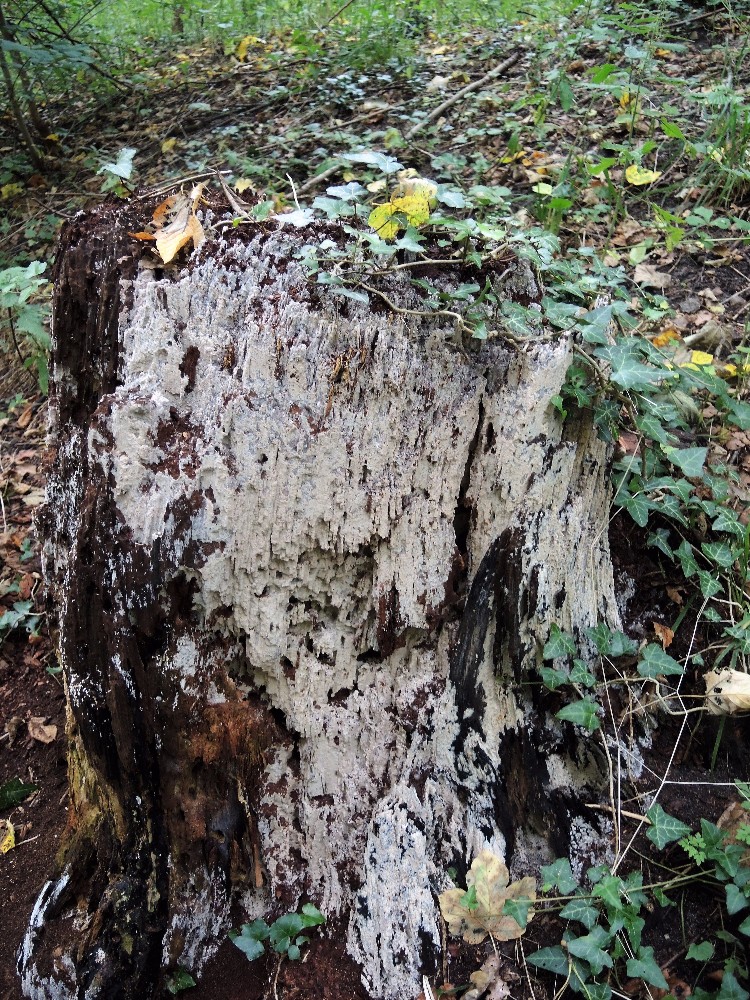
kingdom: Fungi
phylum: Basidiomycota
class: Agaricomycetes
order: Russulales
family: Peniophoraceae
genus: Gloiothele
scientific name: Gloiothele lactescens
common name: bitter olieskind
